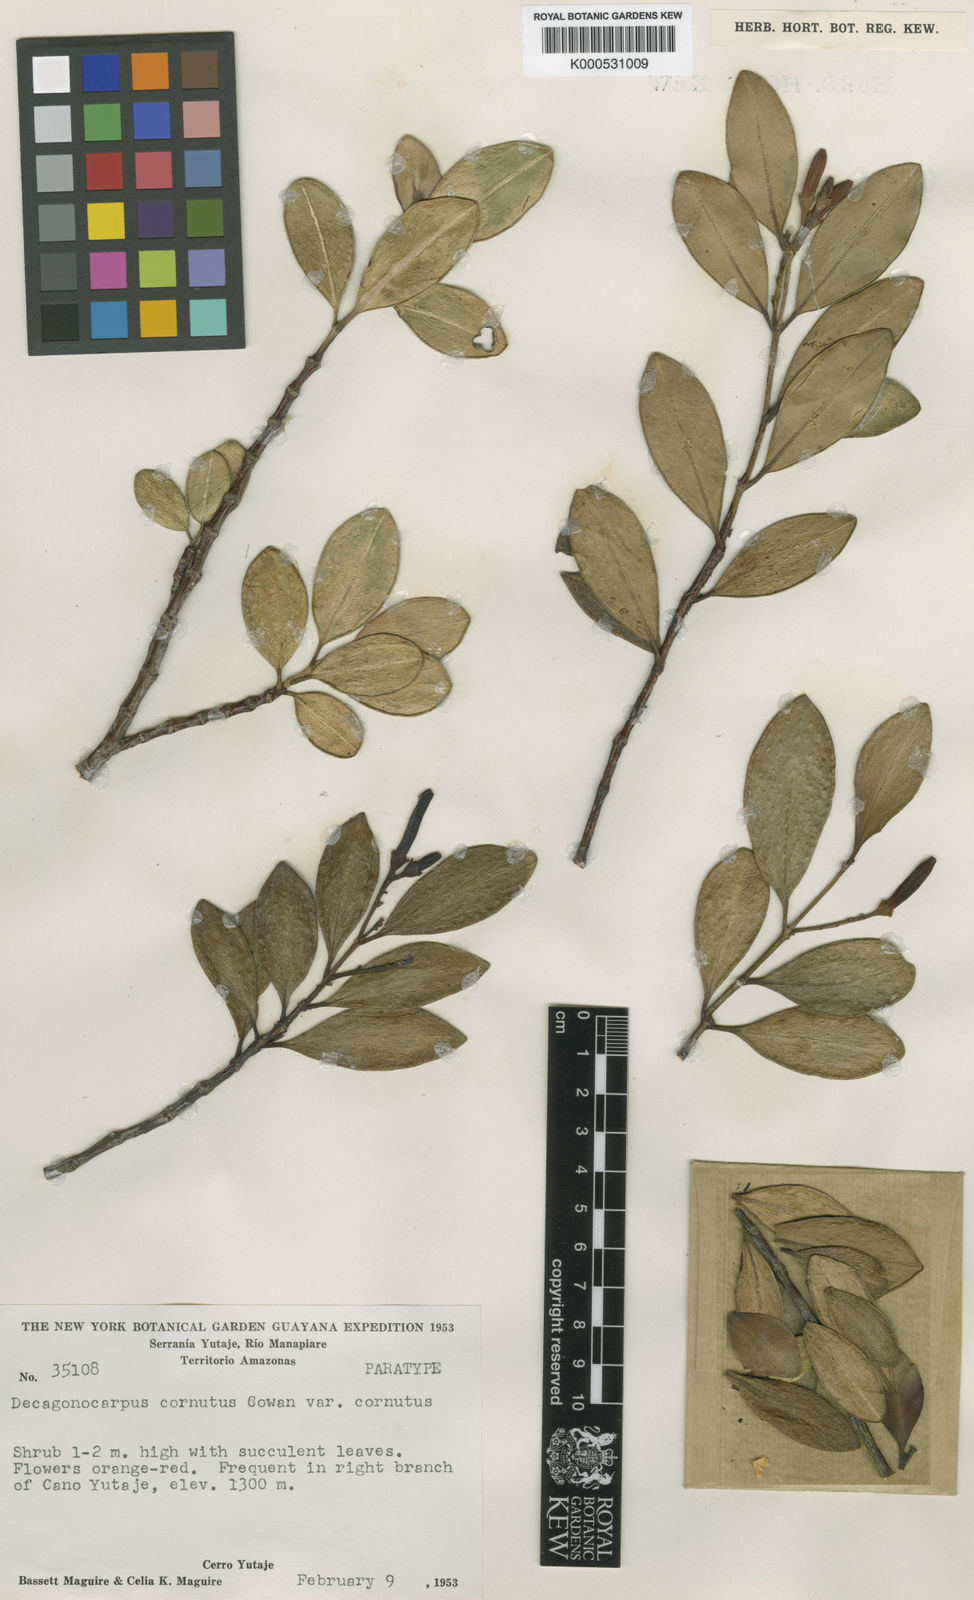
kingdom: Plantae
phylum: Tracheophyta
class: Magnoliopsida
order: Sapindales
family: Rutaceae
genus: Decagonocarpus
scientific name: Decagonocarpus cornutus
